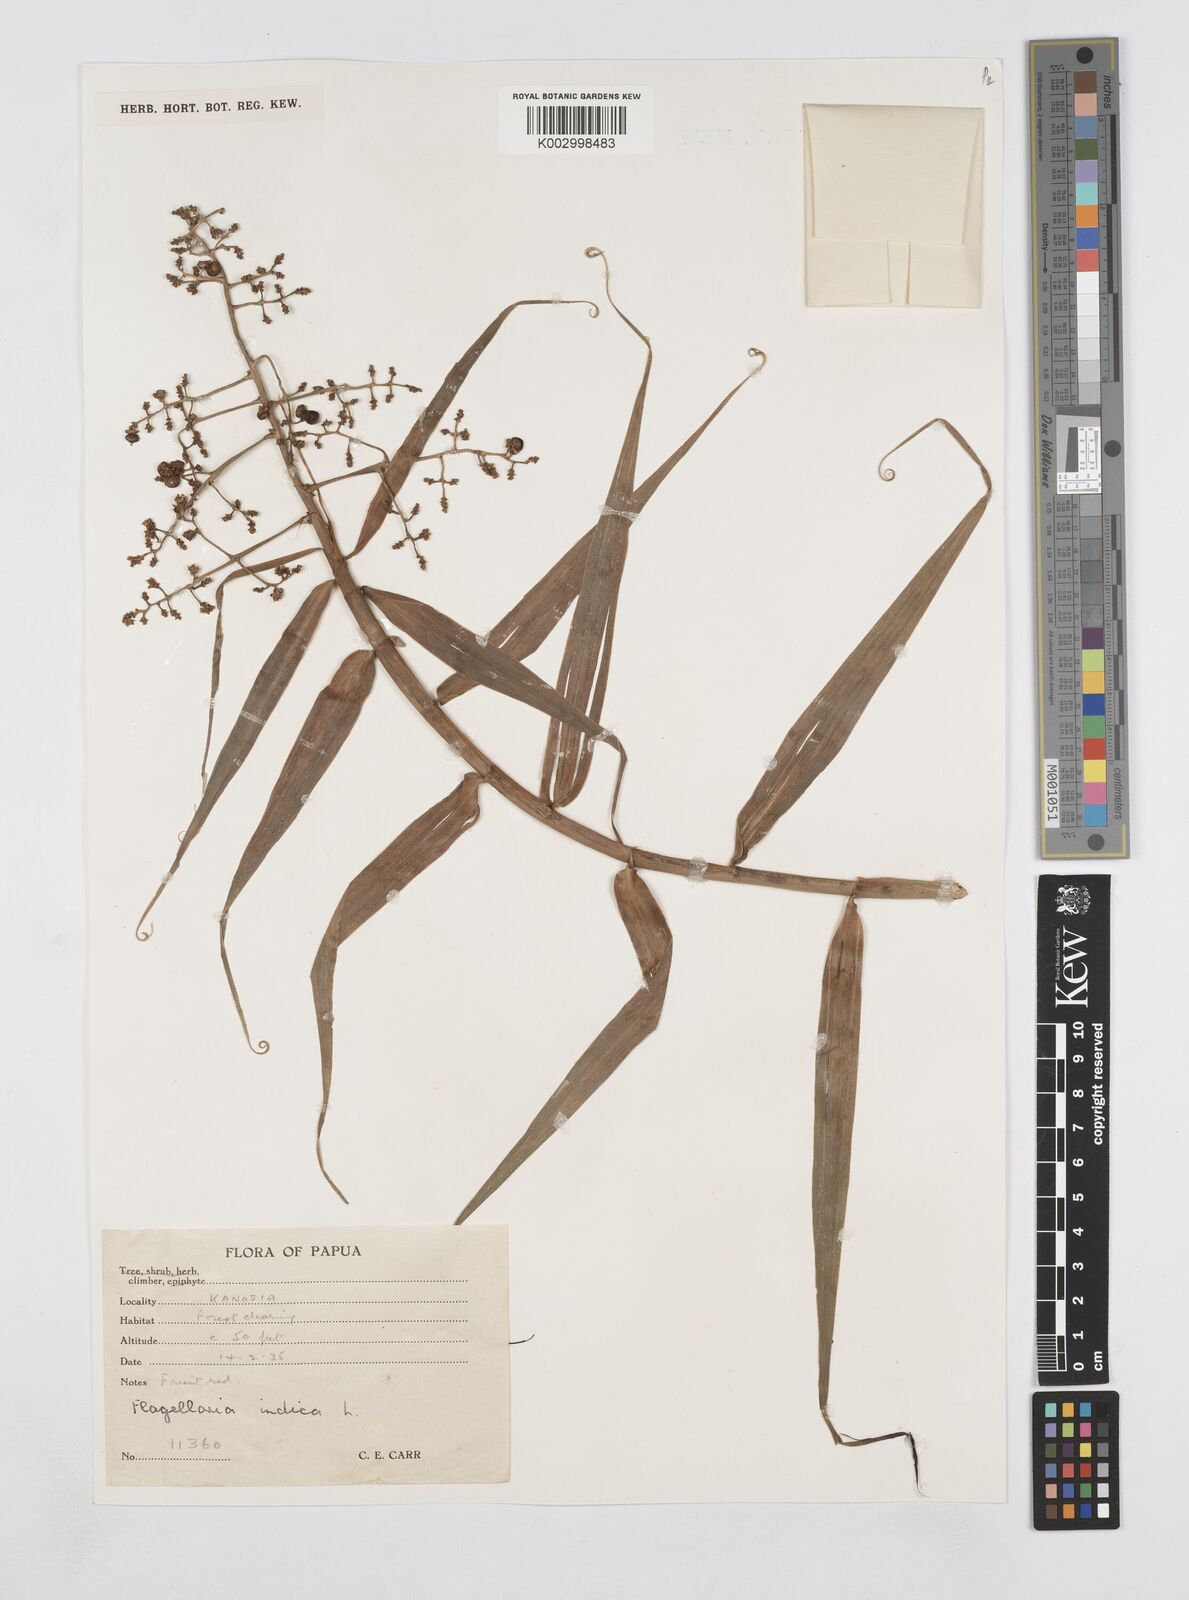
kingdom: Plantae
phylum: Tracheophyta
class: Liliopsida
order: Poales
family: Flagellariaceae
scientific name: Flagellariaceae
